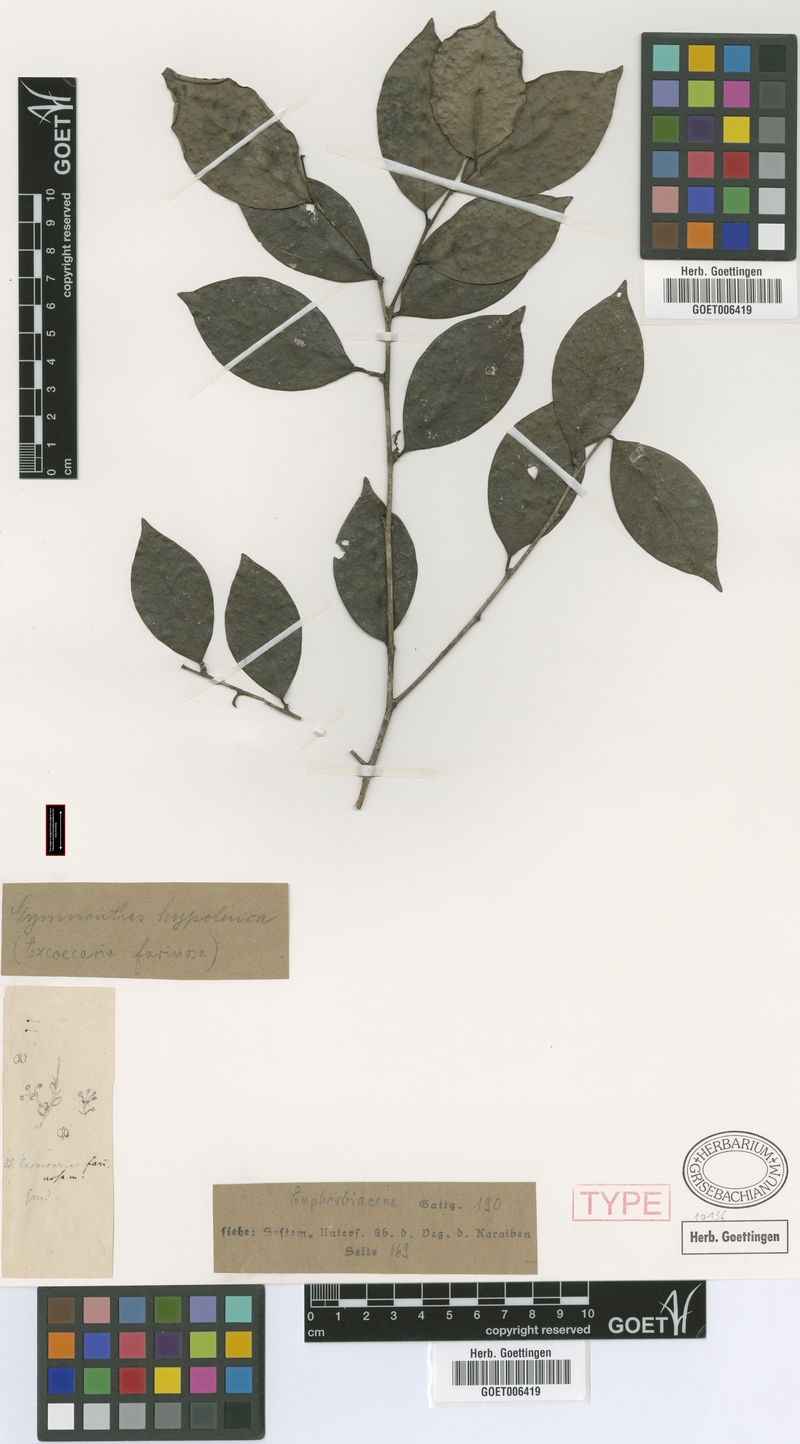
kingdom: Plantae
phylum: Tracheophyta
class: Magnoliopsida
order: Malpighiales
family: Euphorbiaceae
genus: Gymnanthes
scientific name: Gymnanthes farinosa
